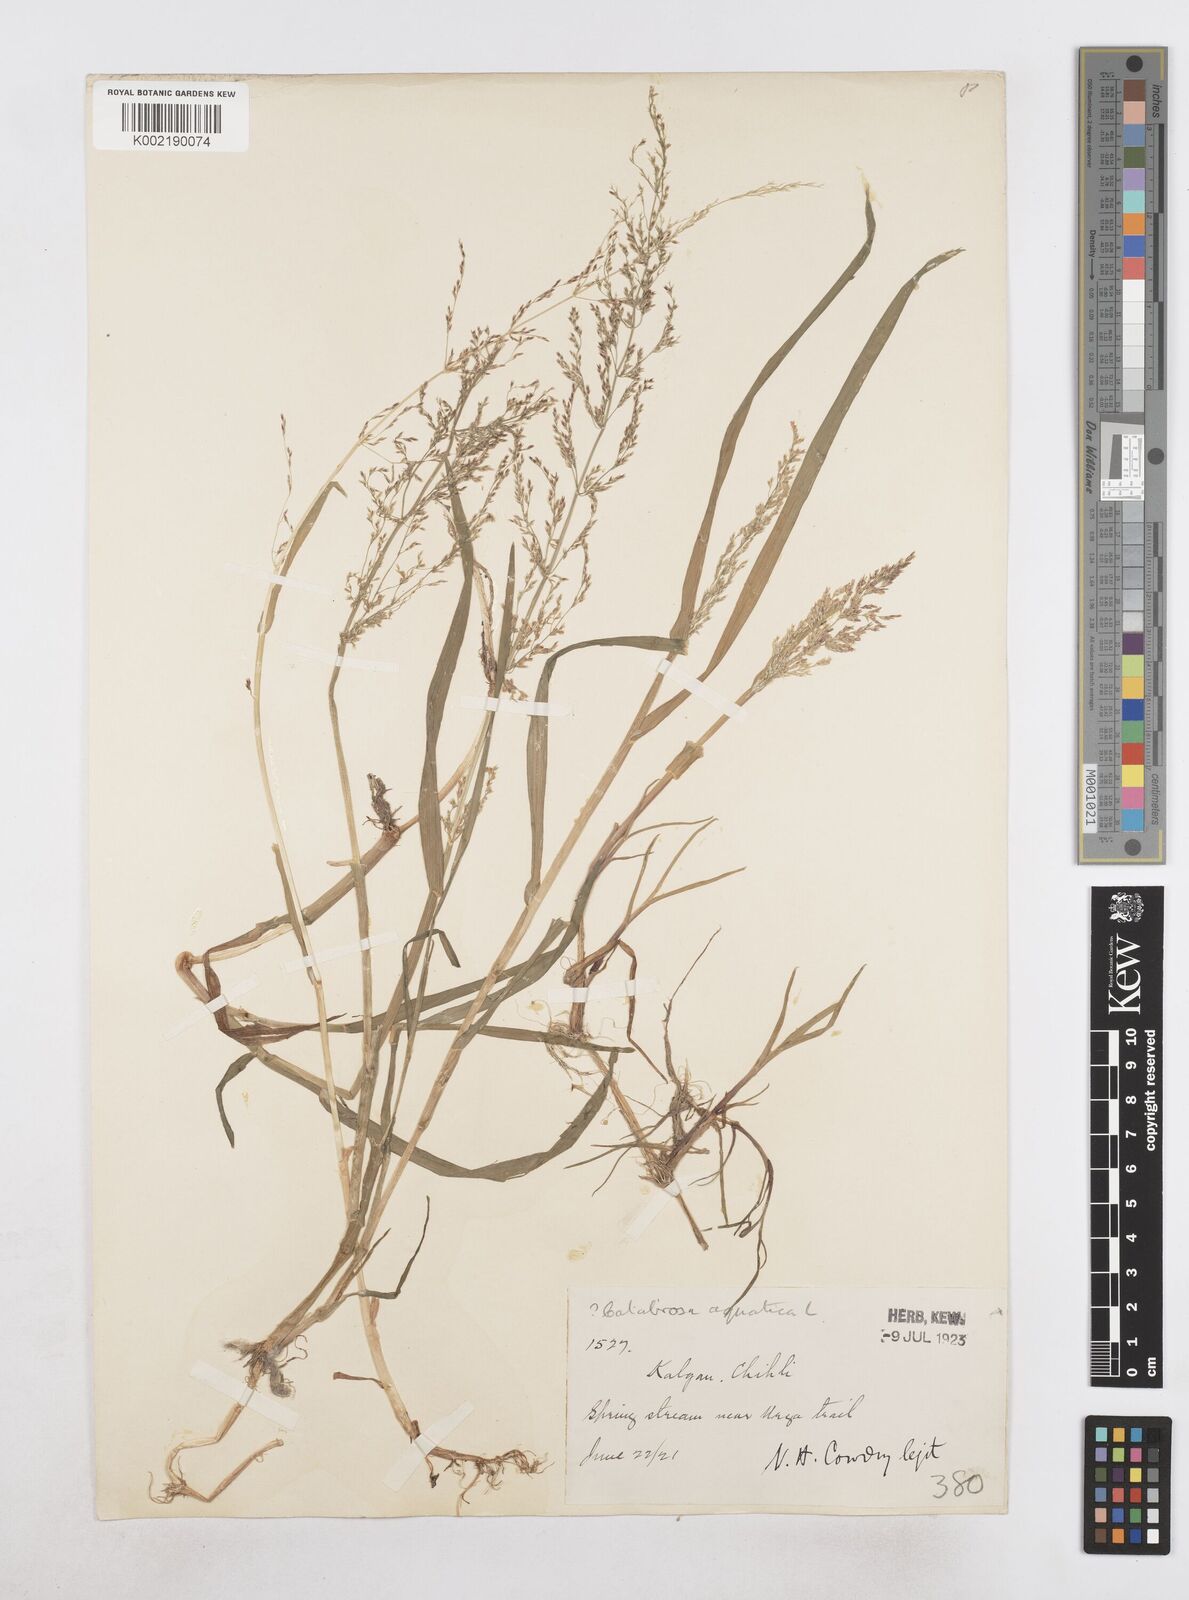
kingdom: Plantae
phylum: Tracheophyta
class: Liliopsida
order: Poales
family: Poaceae
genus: Catabrosa
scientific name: Catabrosa aquatica
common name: Whorl-grass
